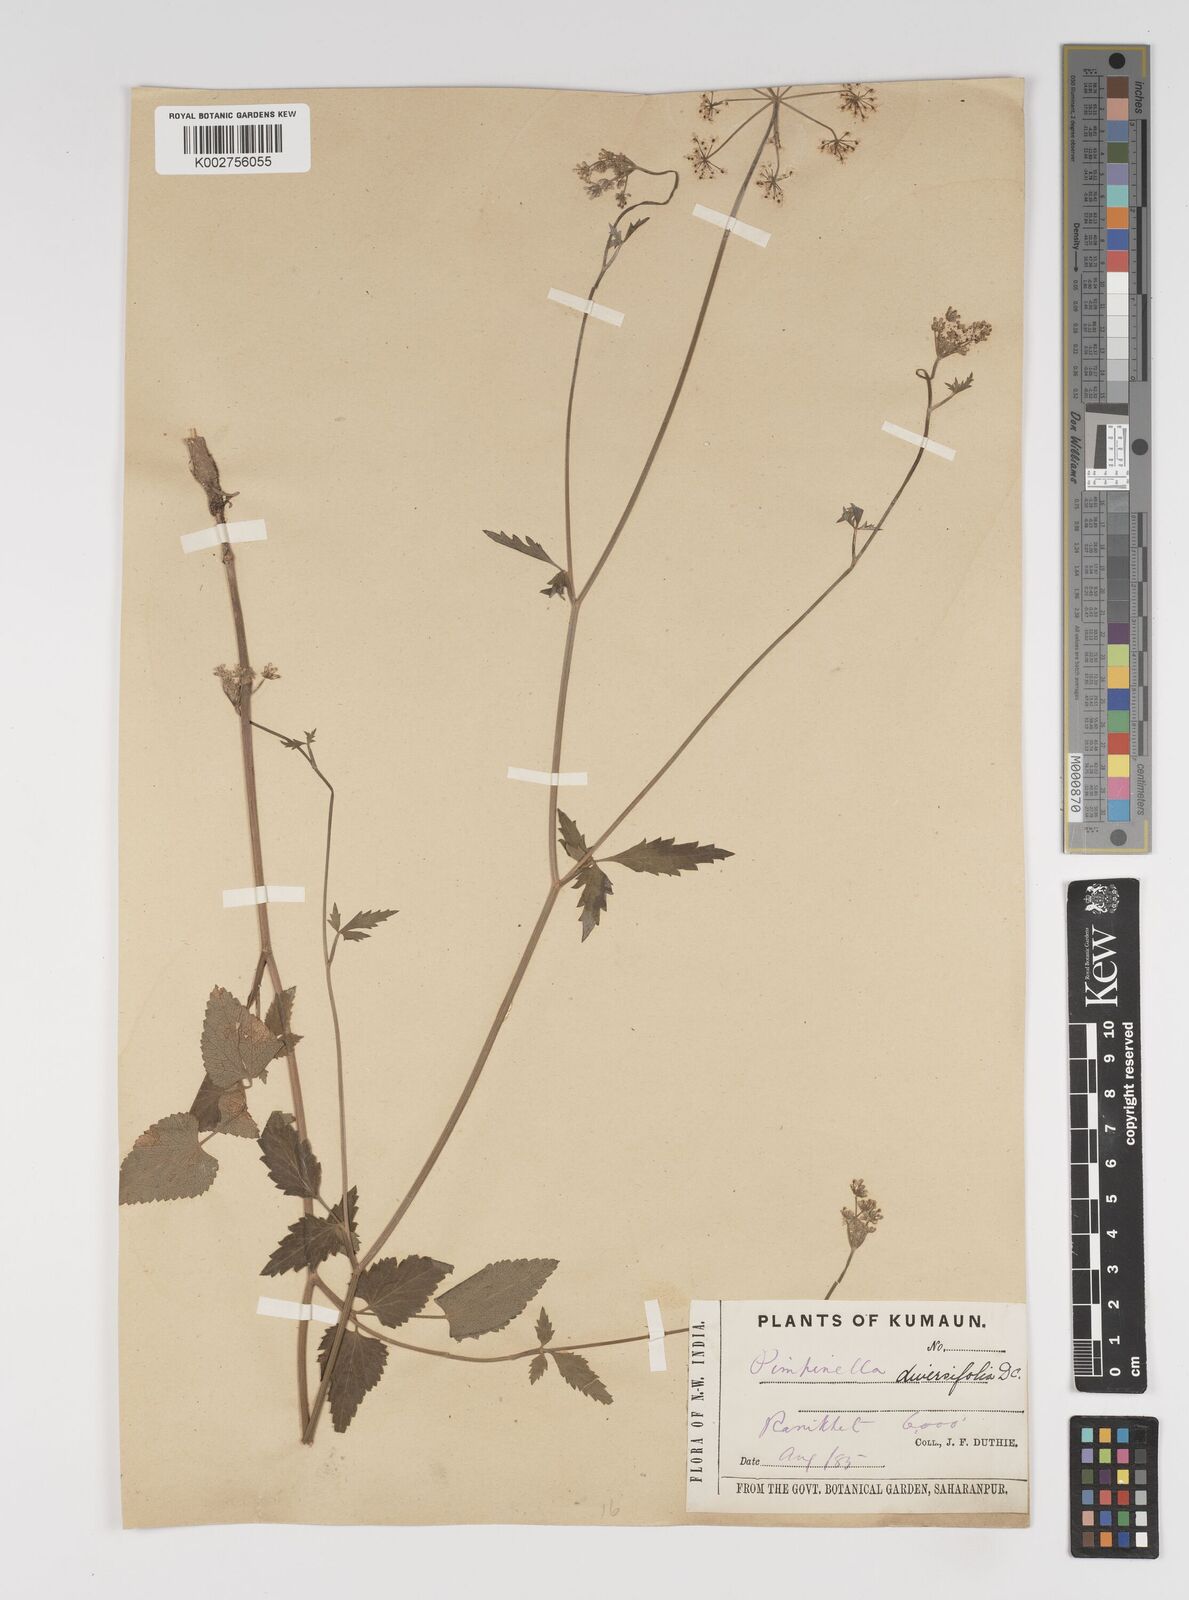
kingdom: Plantae
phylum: Tracheophyta
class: Magnoliopsida
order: Apiales
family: Apiaceae
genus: Pimpinella
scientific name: Pimpinella diversifolia
